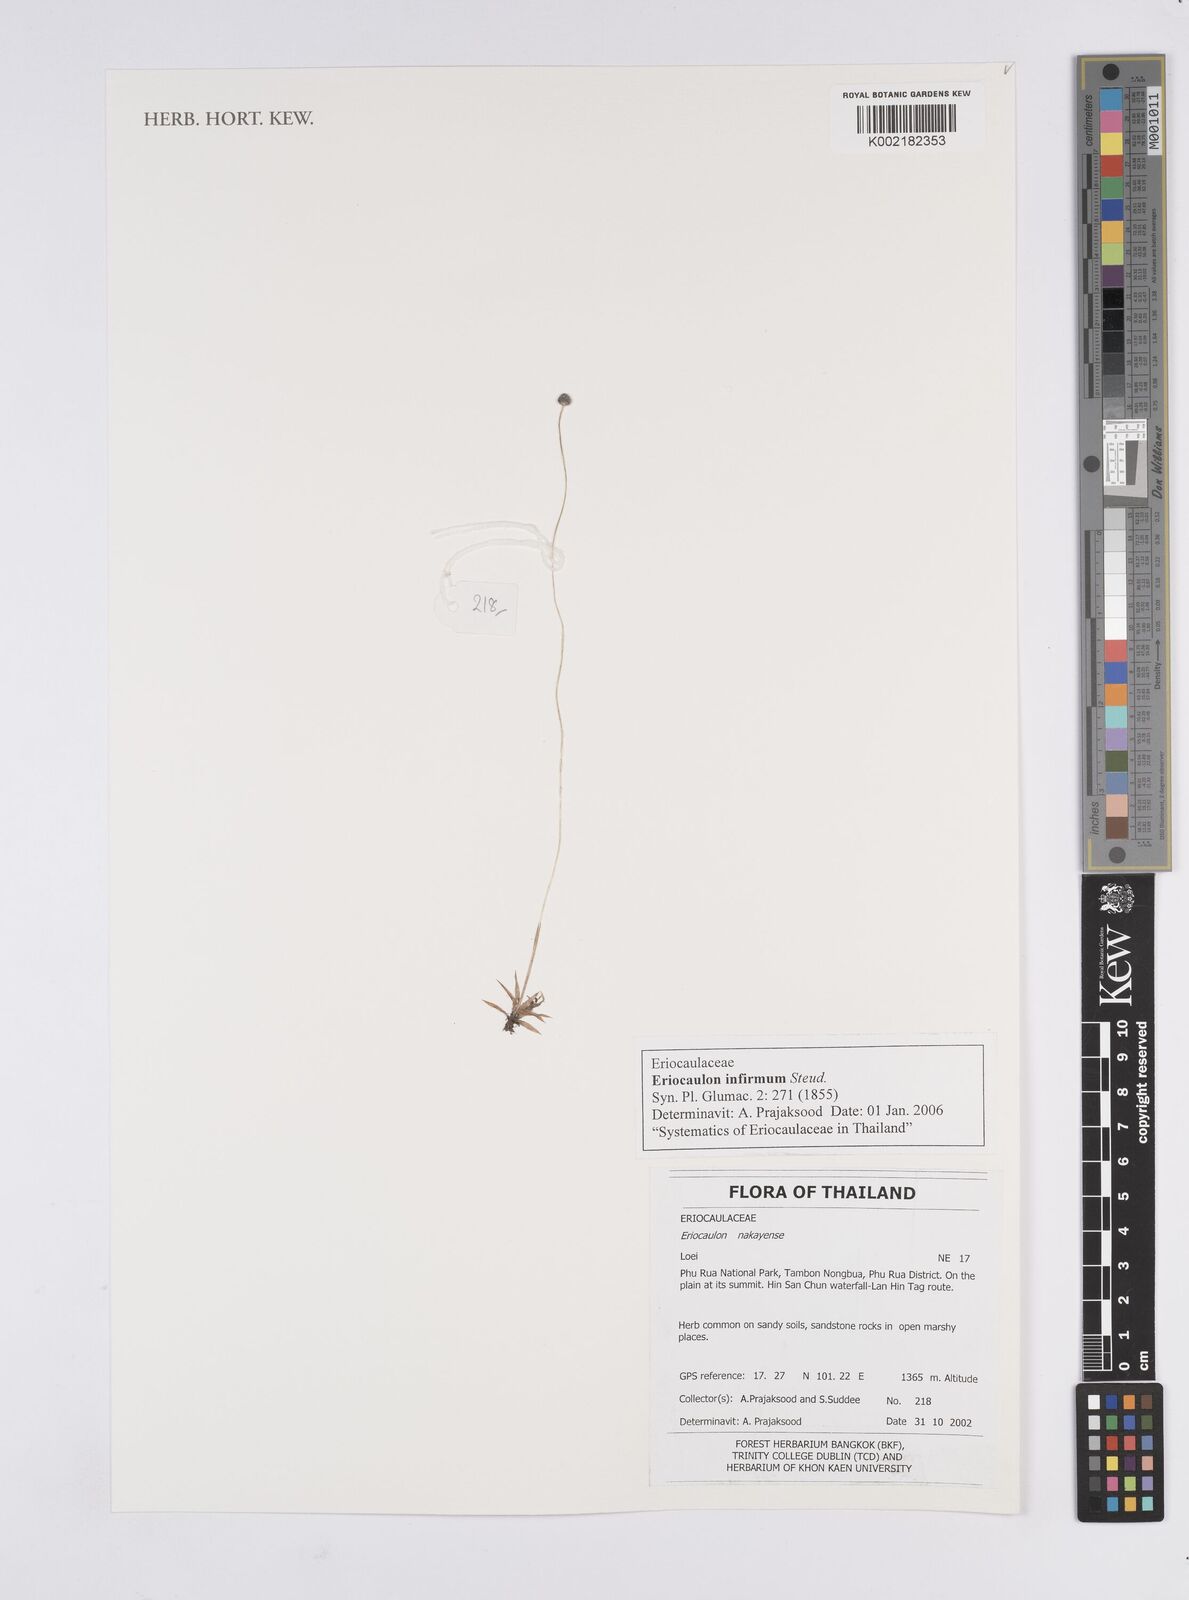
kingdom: Plantae
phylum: Tracheophyta
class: Liliopsida
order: Poales
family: Eriocaulaceae
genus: Eriocaulon
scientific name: Eriocaulon infirmum
